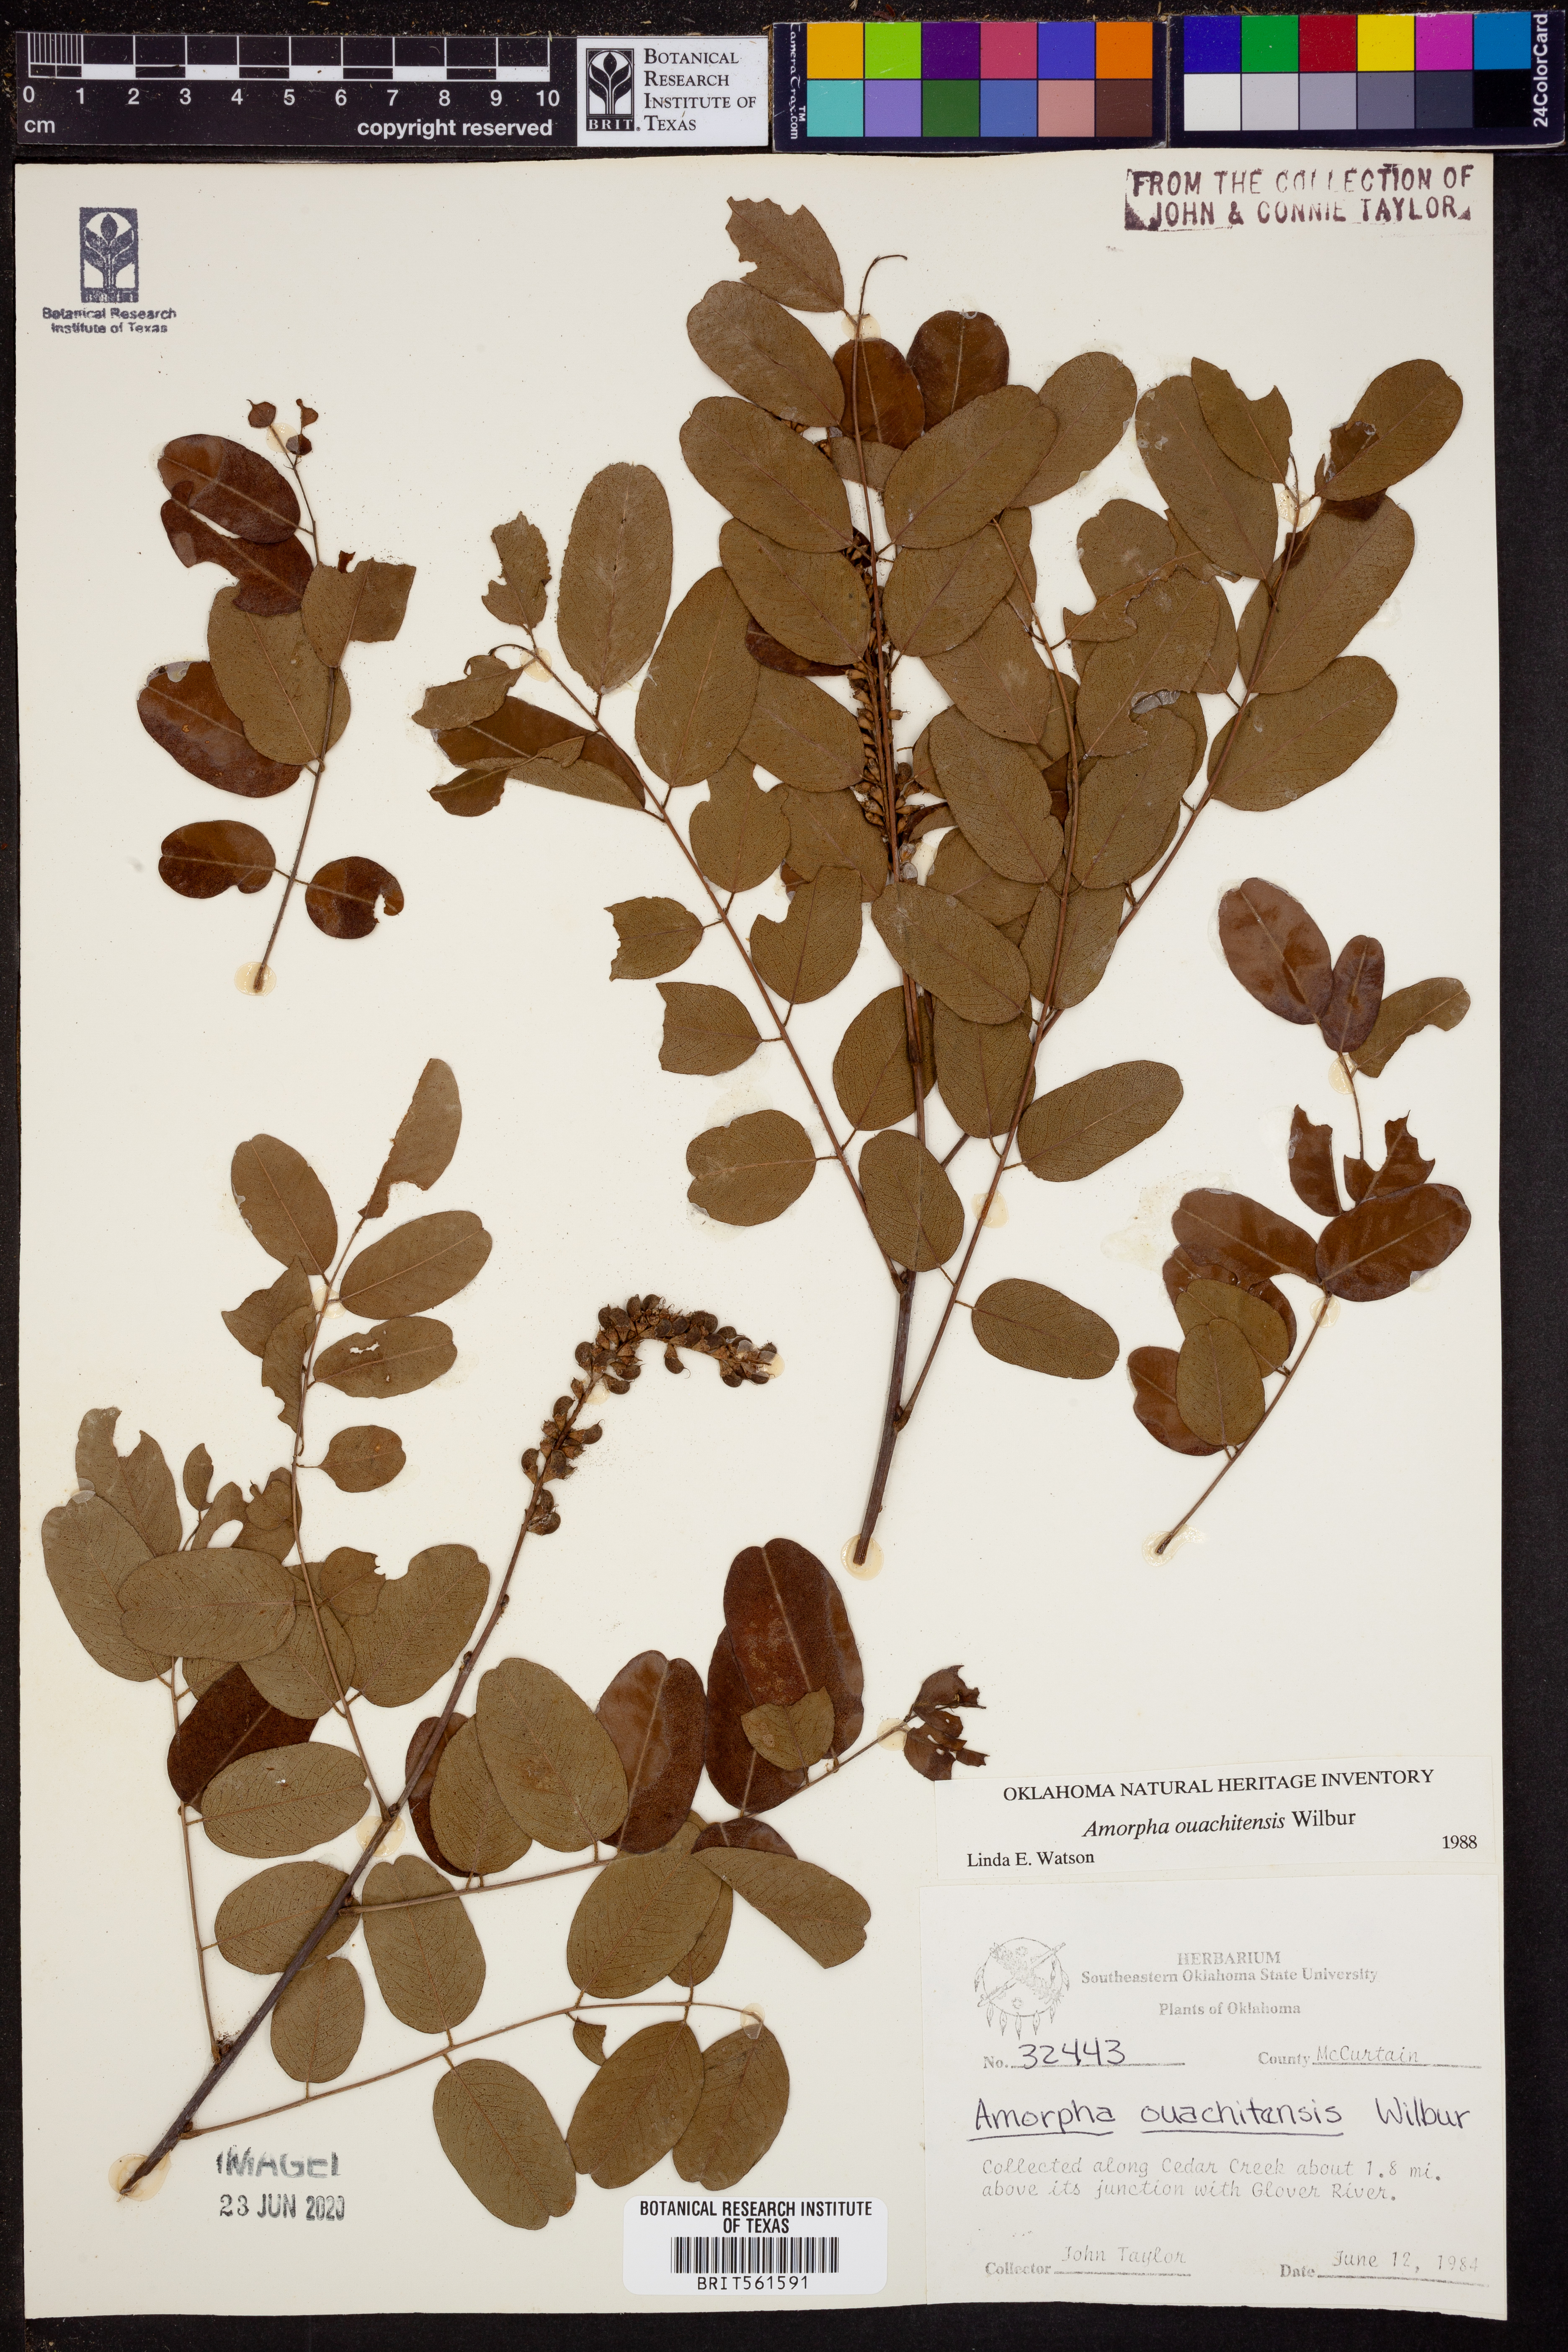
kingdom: Plantae
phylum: Tracheophyta
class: Magnoliopsida
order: Fabales
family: Fabaceae
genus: Amorpha
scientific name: Amorpha ouachitensis
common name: Ouachita false indigo
